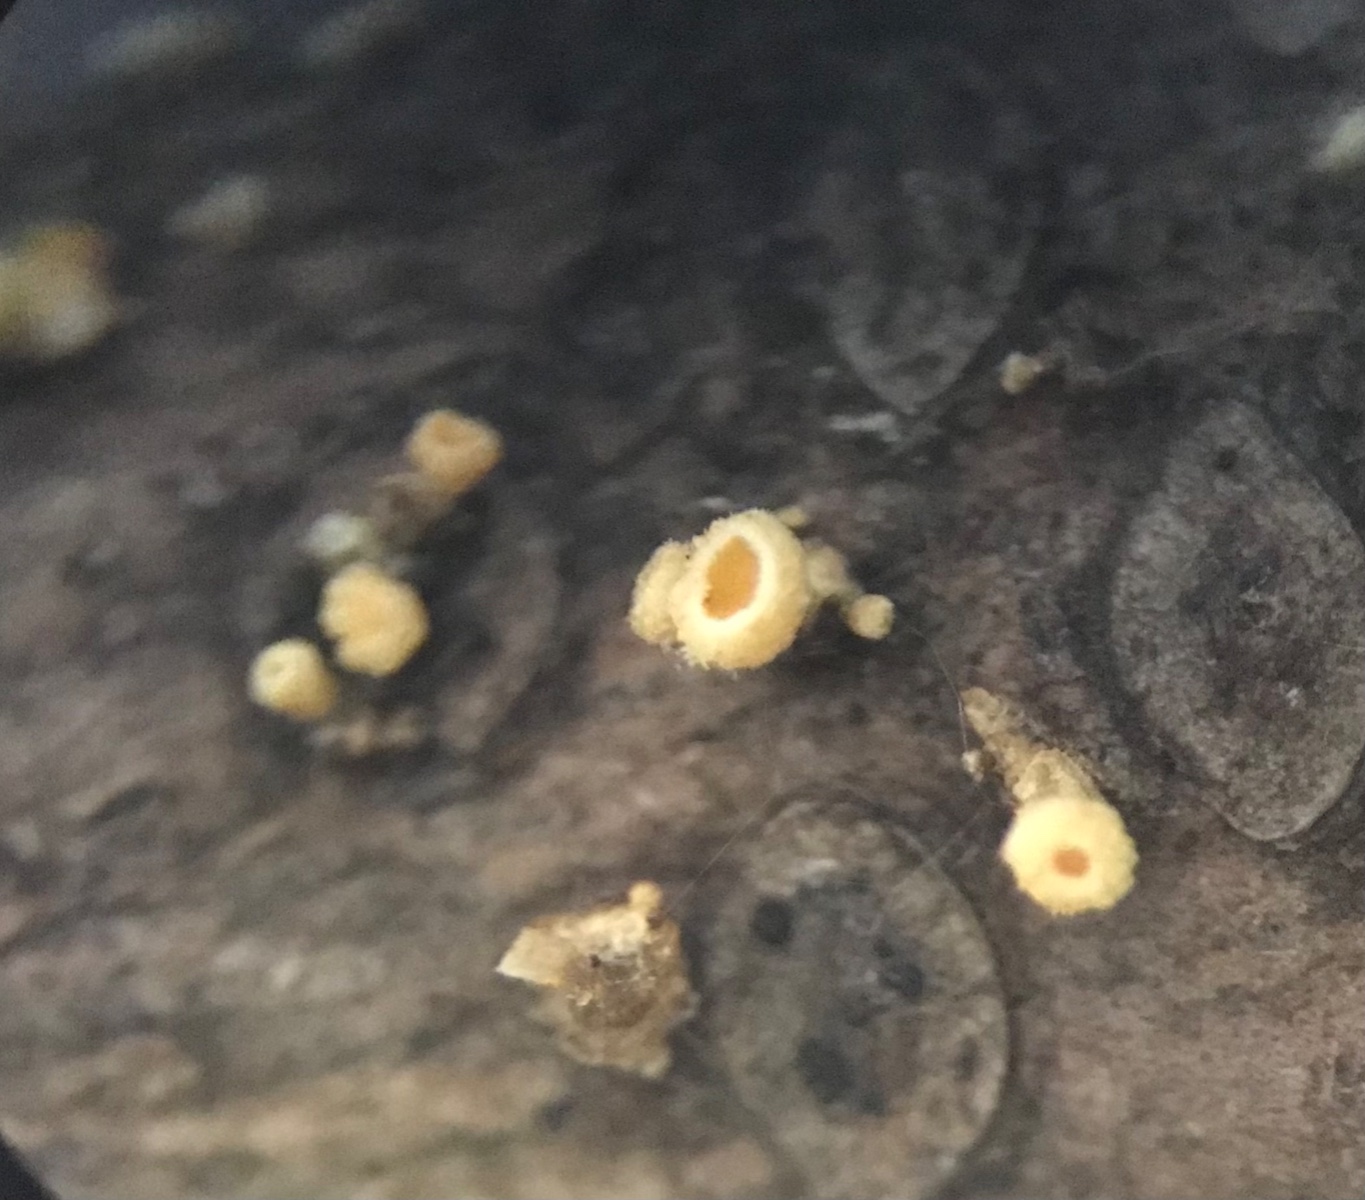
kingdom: Fungi
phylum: Ascomycota
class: Leotiomycetes
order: Helotiales
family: Lachnaceae
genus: Lachnellula
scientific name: Lachnellula subtilissima
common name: gran-frynseskive
